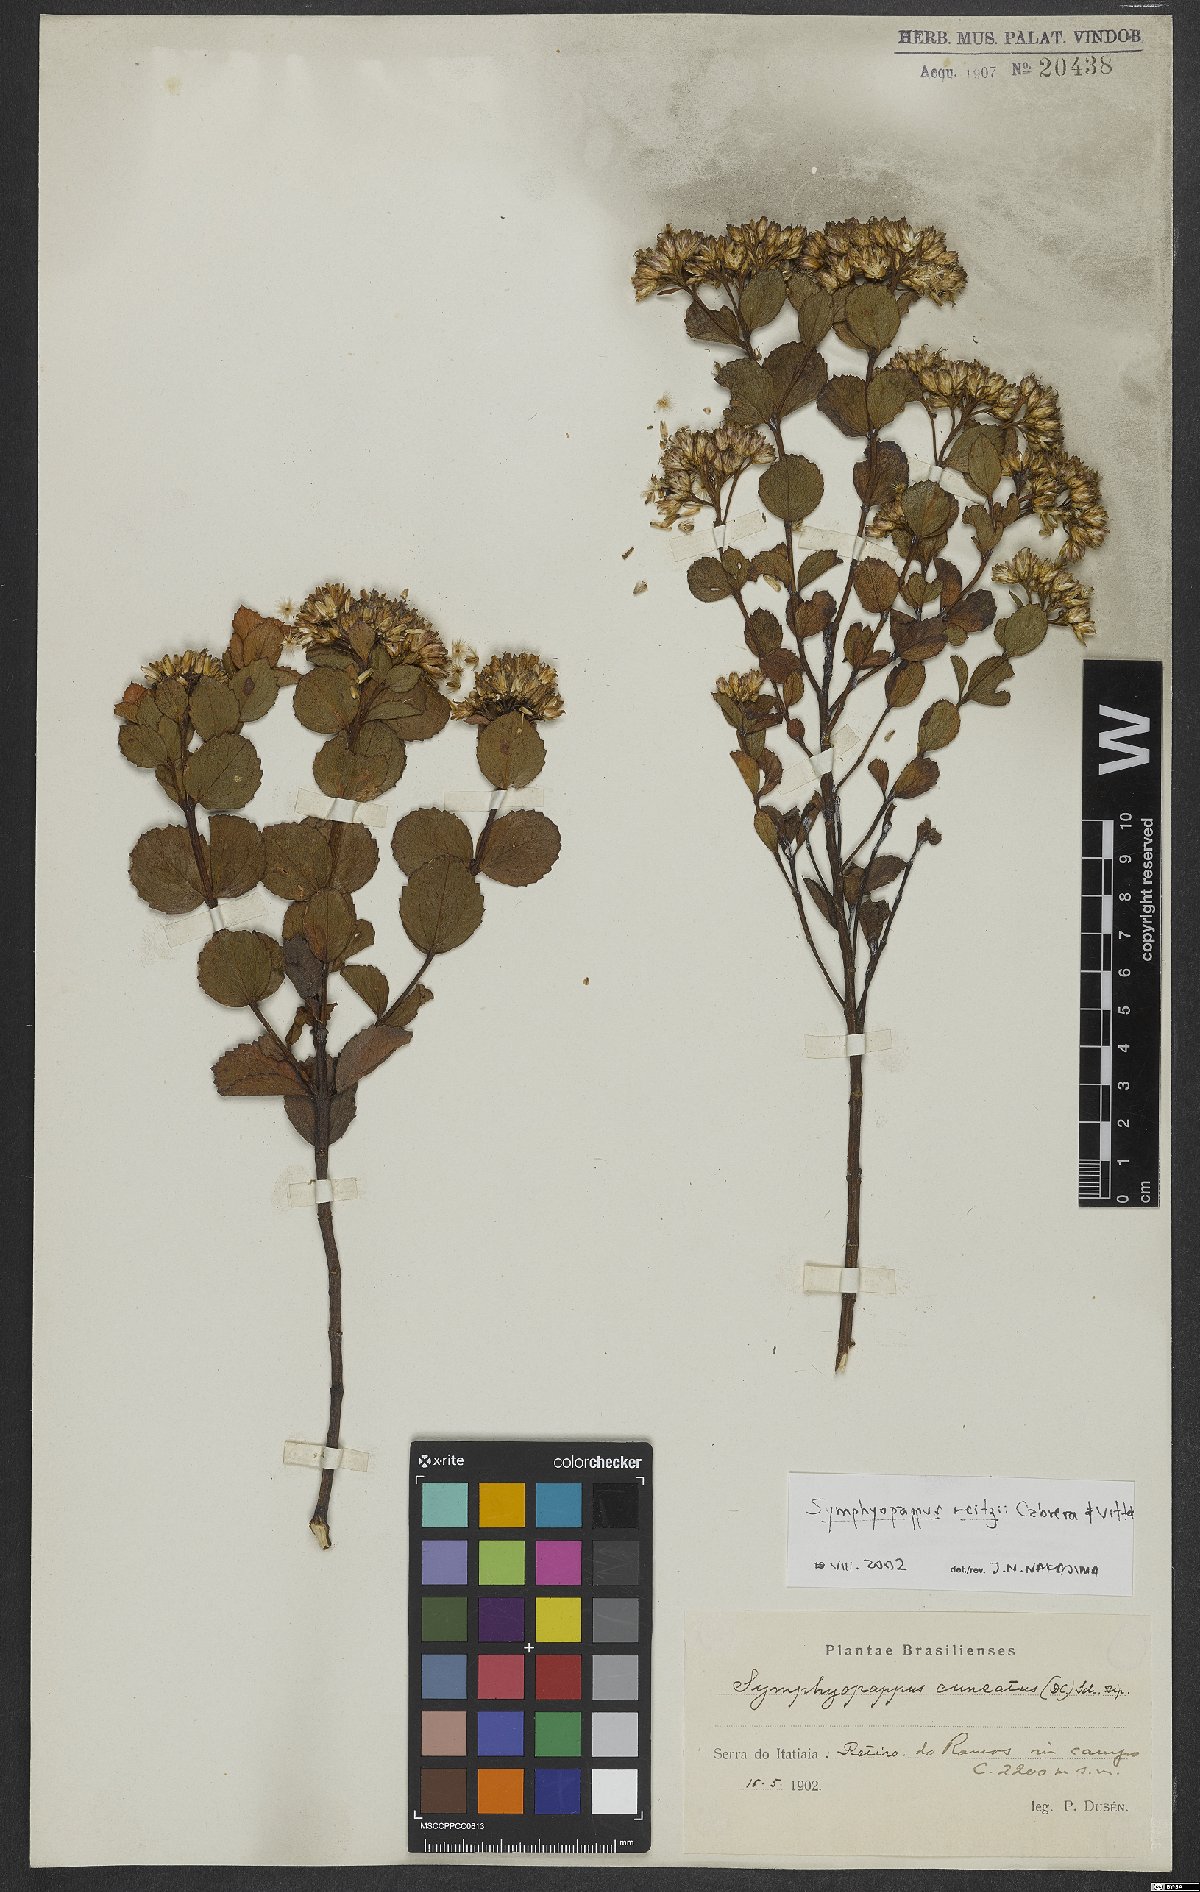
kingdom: Plantae
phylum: Tracheophyta
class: Magnoliopsida
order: Asterales
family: Asteraceae
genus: Symphyopappus
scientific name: Symphyopappus reitzii
